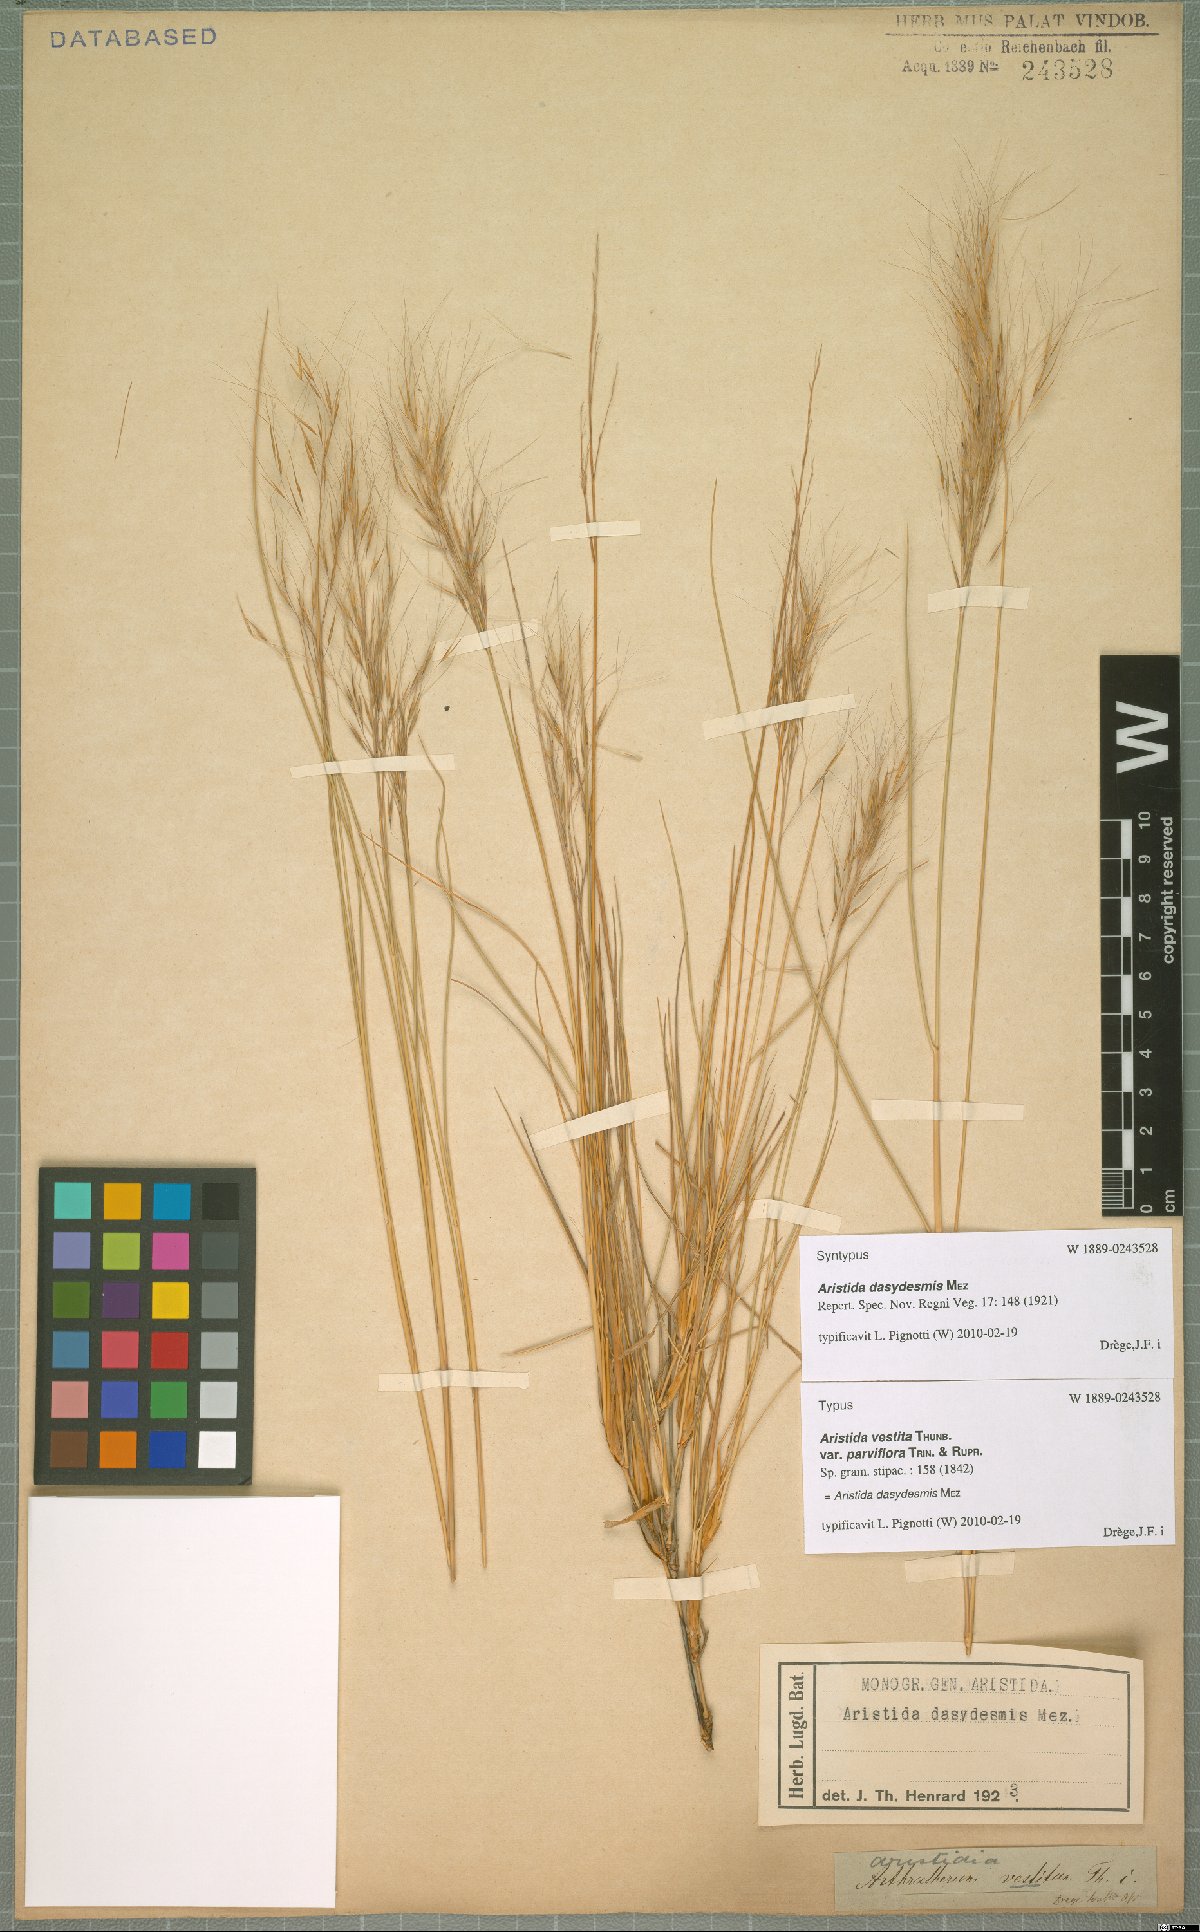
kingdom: Plantae
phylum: Tracheophyta
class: Liliopsida
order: Poales
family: Poaceae
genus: Aristida
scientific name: Aristida dasydesmis
